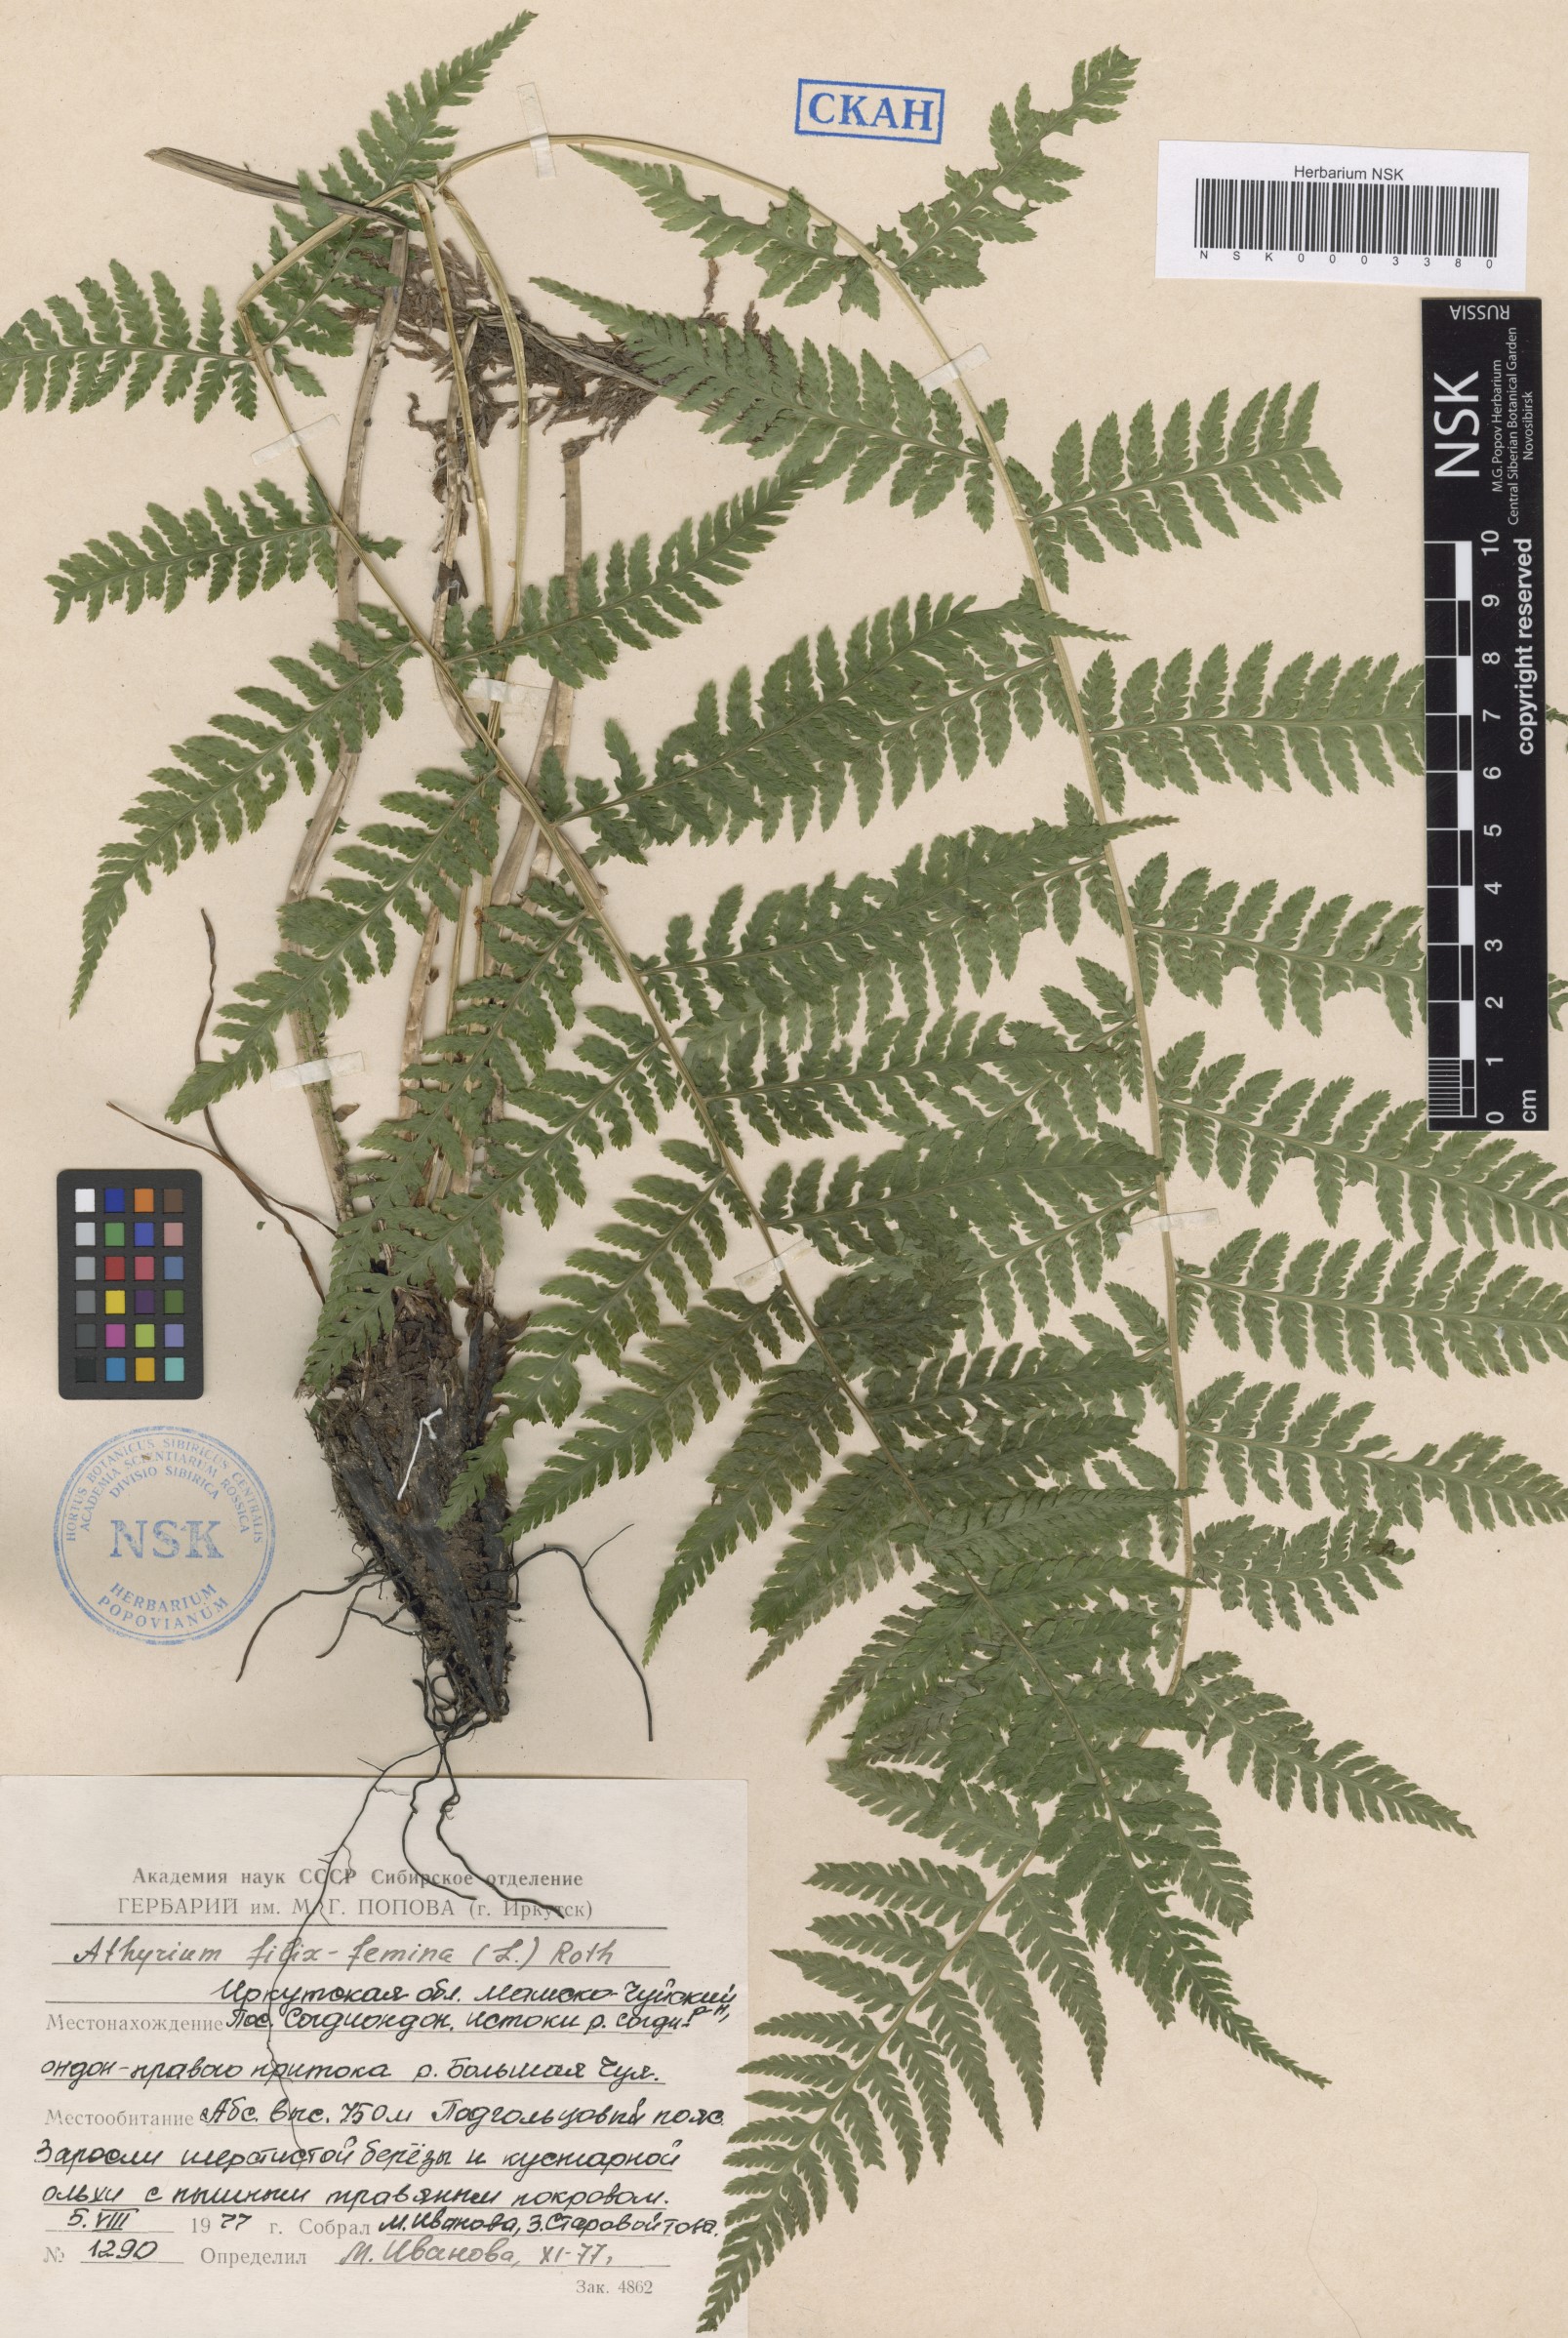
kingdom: Plantae
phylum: Tracheophyta
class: Polypodiopsida
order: Polypodiales
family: Athyriaceae
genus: Athyrium
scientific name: Athyrium filix-femina
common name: Lady fern
